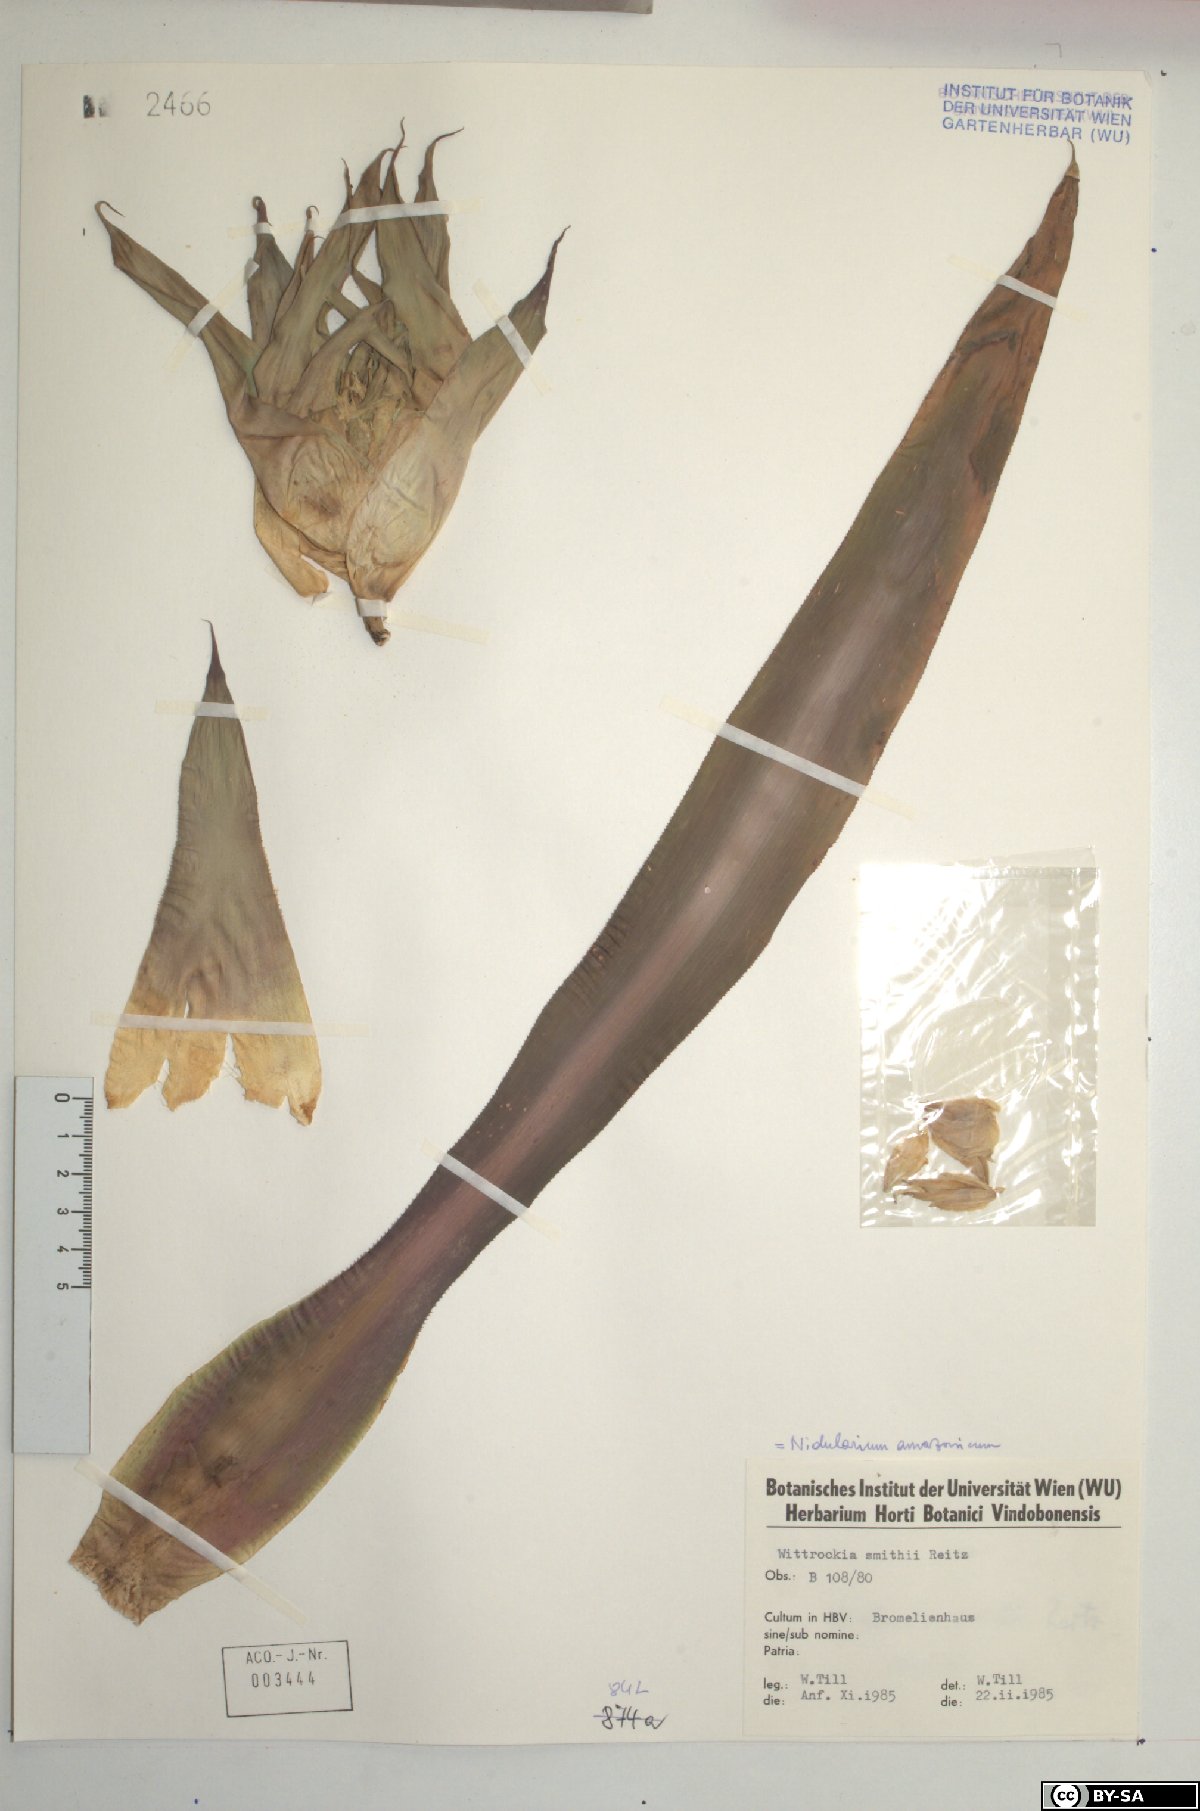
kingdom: Plantae
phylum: Tracheophyta
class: Liliopsida
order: Poales
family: Bromeliaceae
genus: Nidularium
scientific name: Nidularium amazonicum
